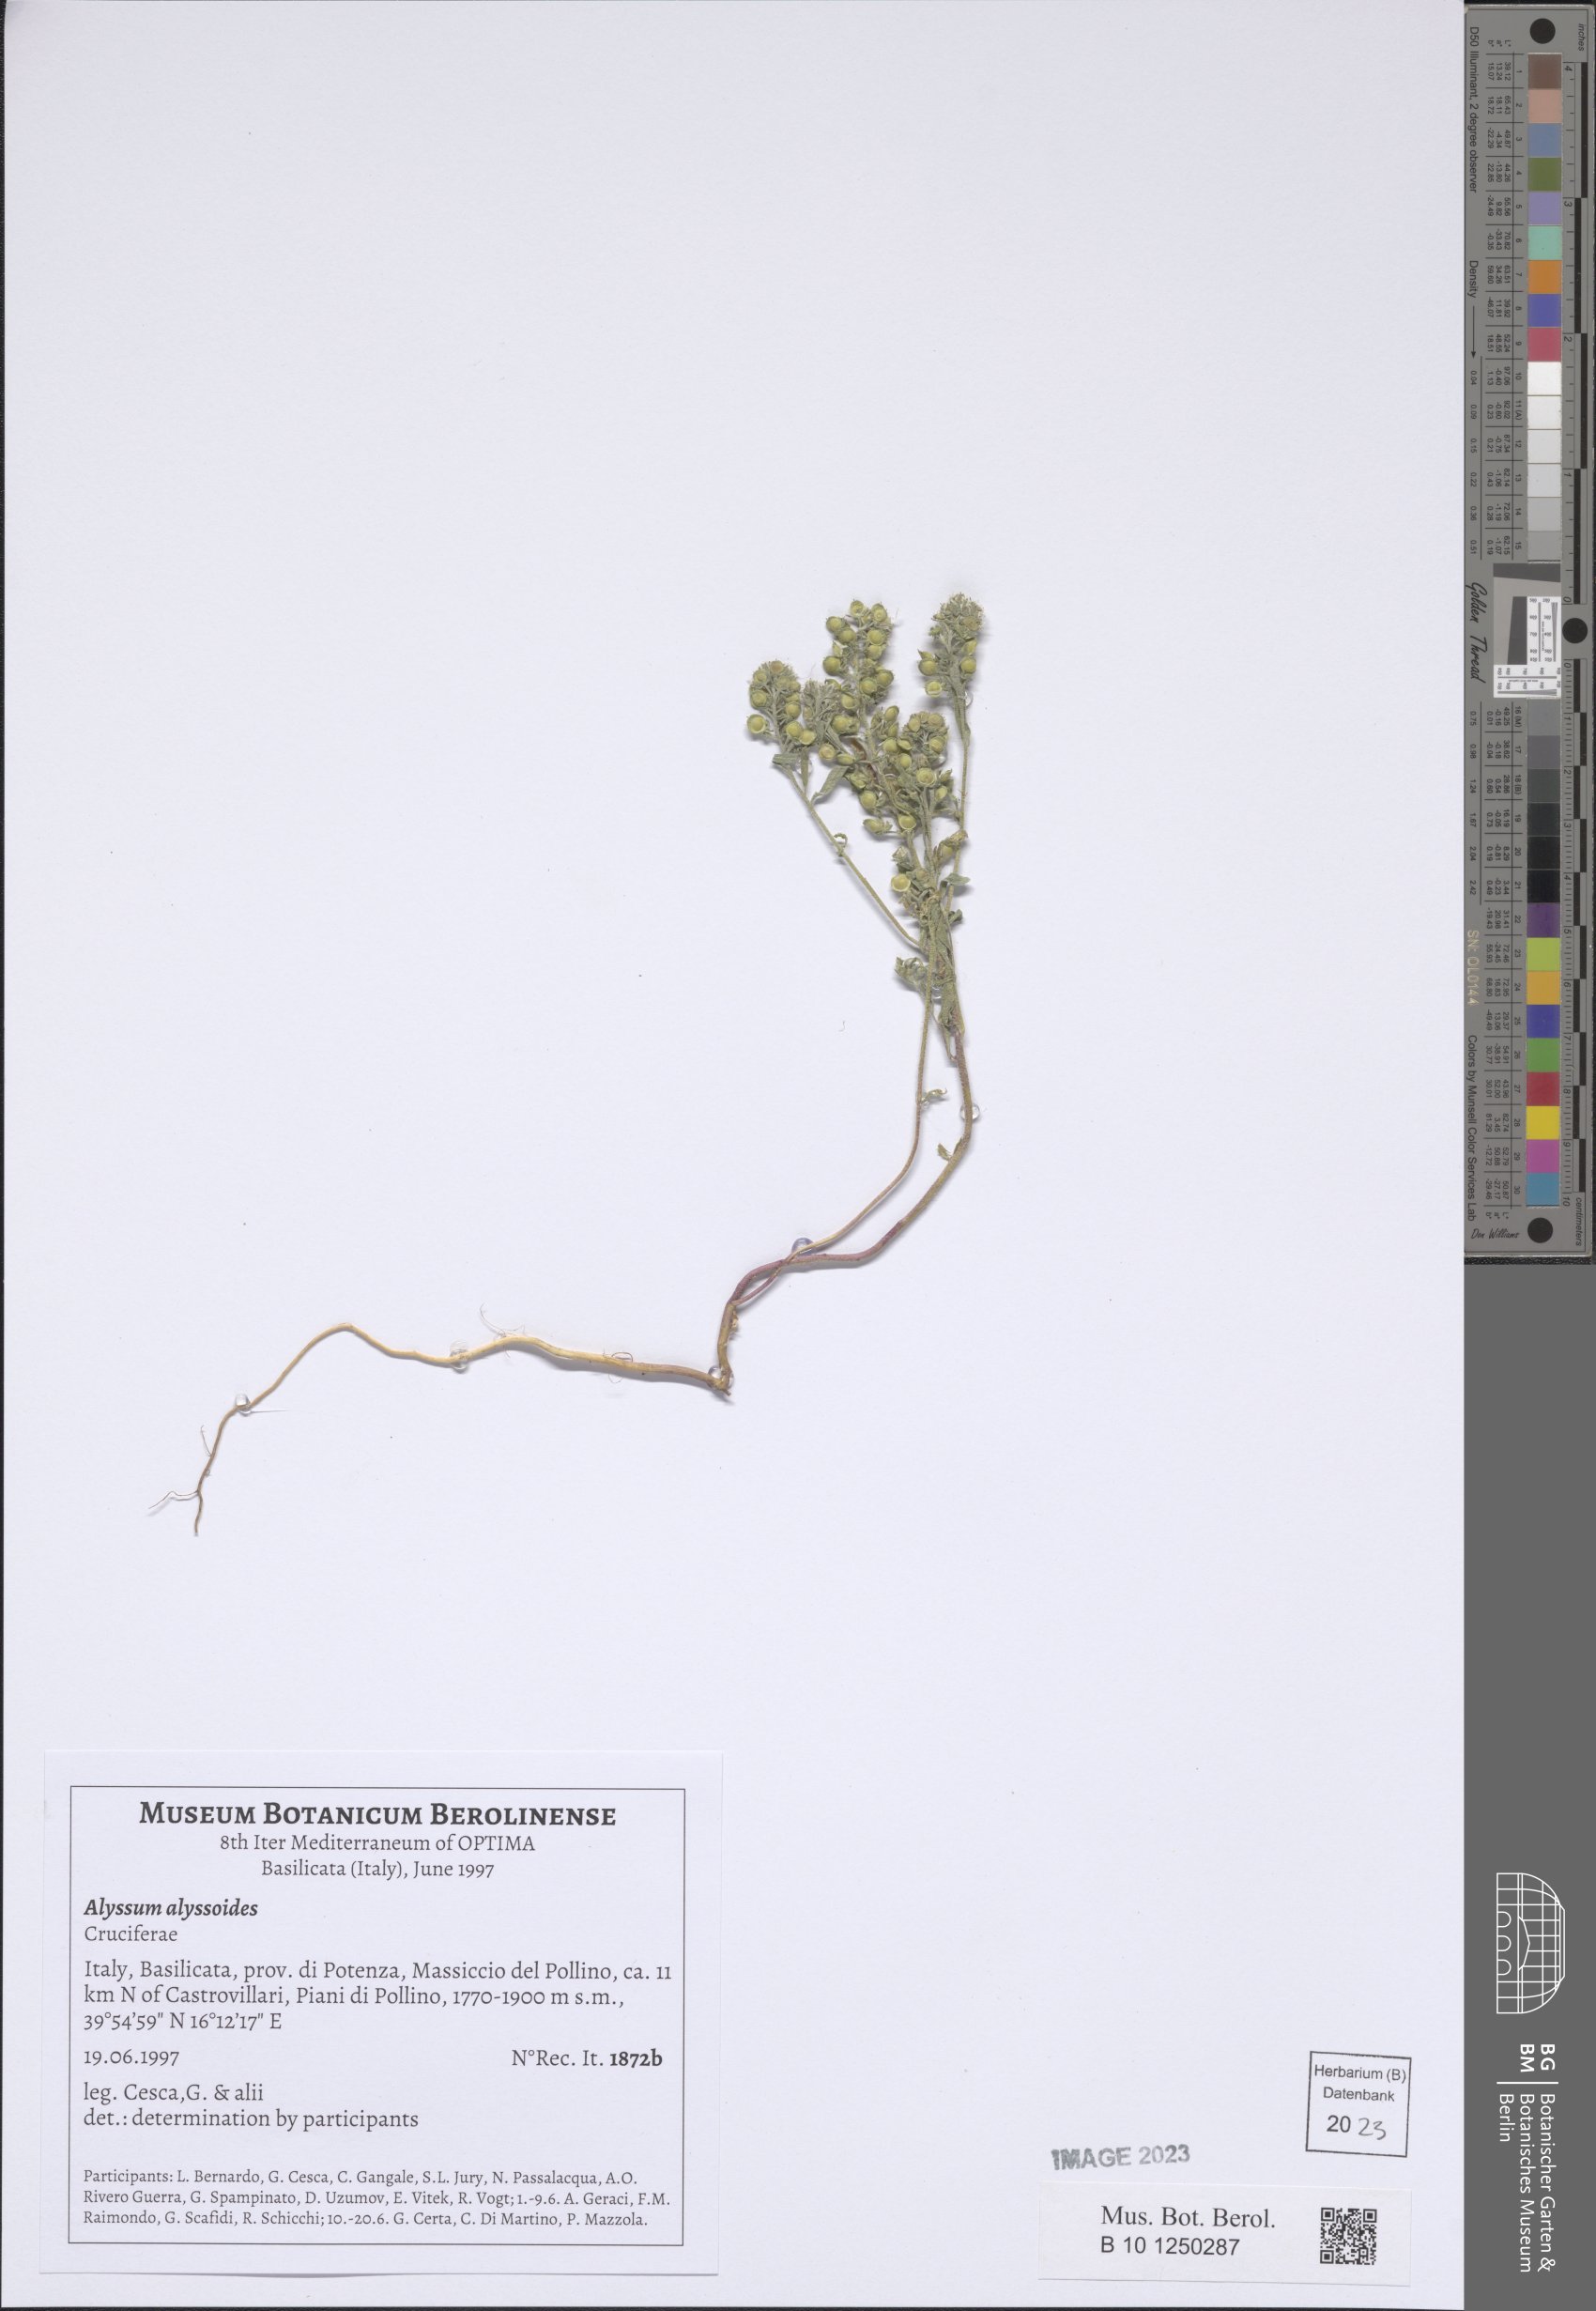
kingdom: Plantae
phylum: Tracheophyta
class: Magnoliopsida
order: Brassicales
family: Brassicaceae
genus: Alyssum
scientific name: Alyssum alyssoides
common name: Small alison
